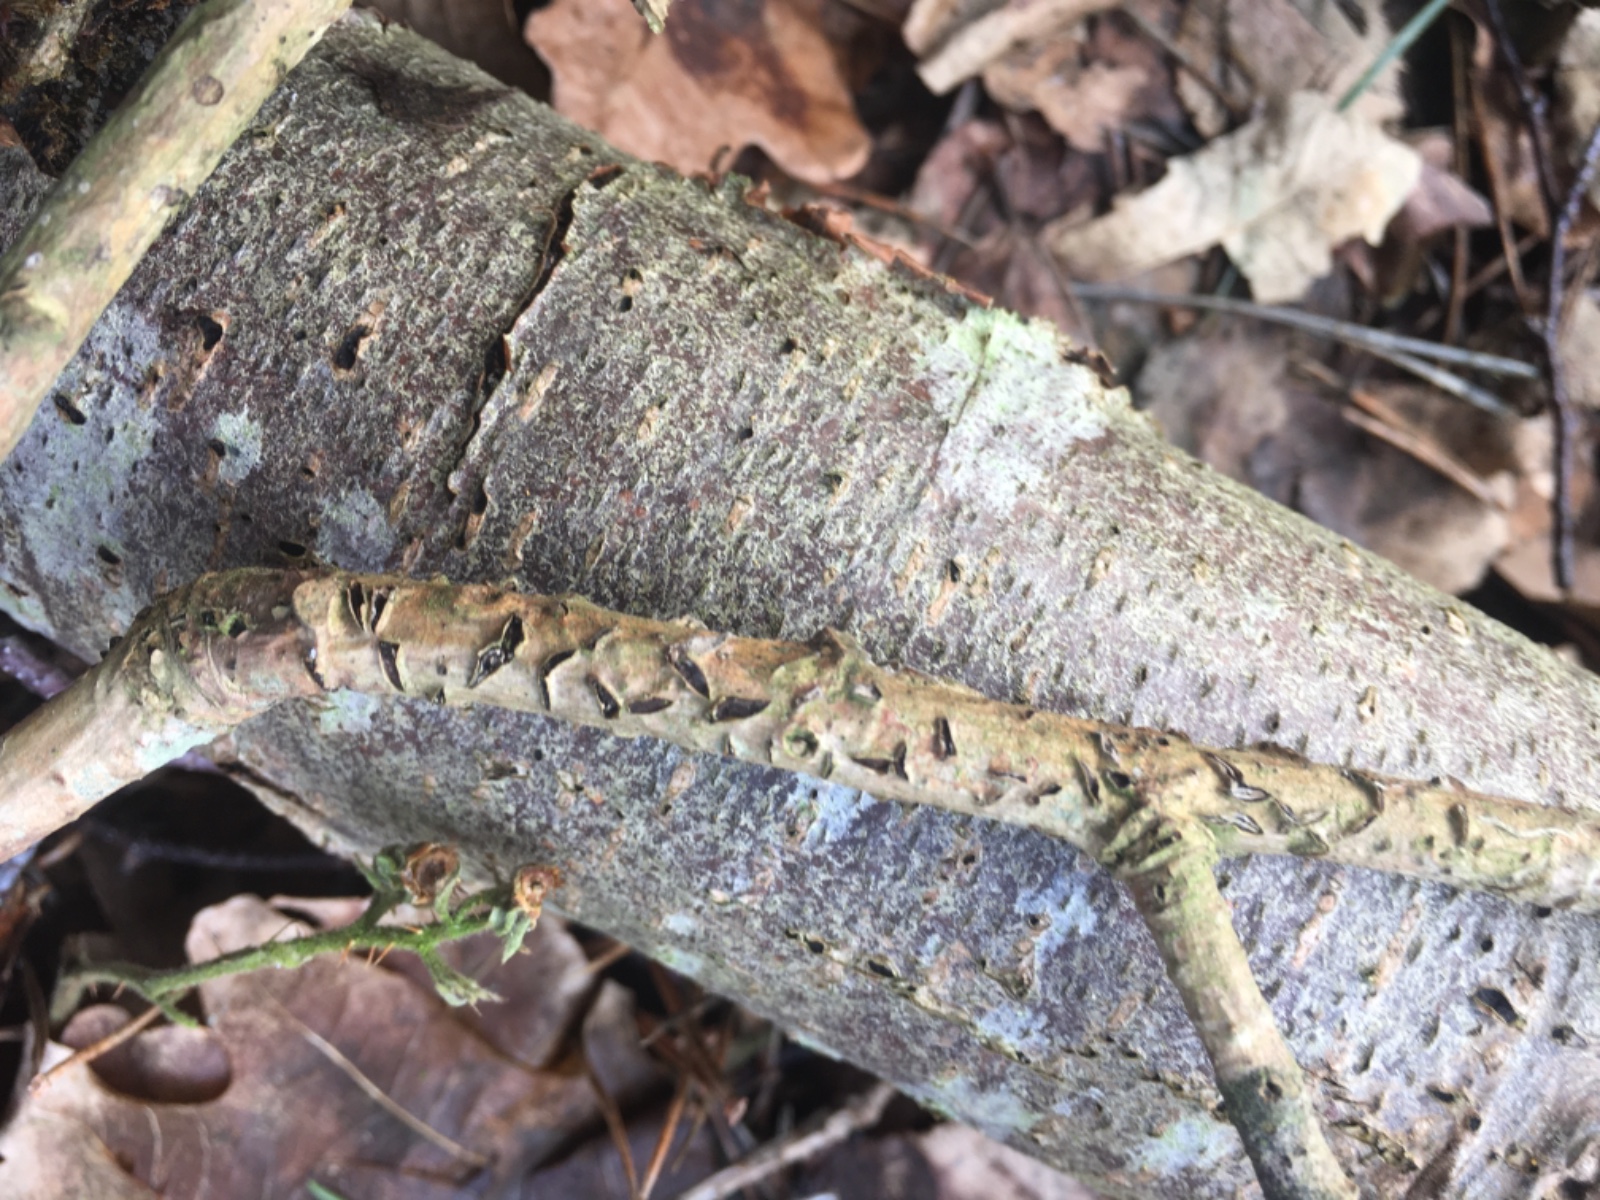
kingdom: Fungi
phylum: Ascomycota
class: Leotiomycetes
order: Rhytismatales
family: Rhytismataceae
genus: Colpoma
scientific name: Colpoma quercinum
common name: ege-sprækkeskive
